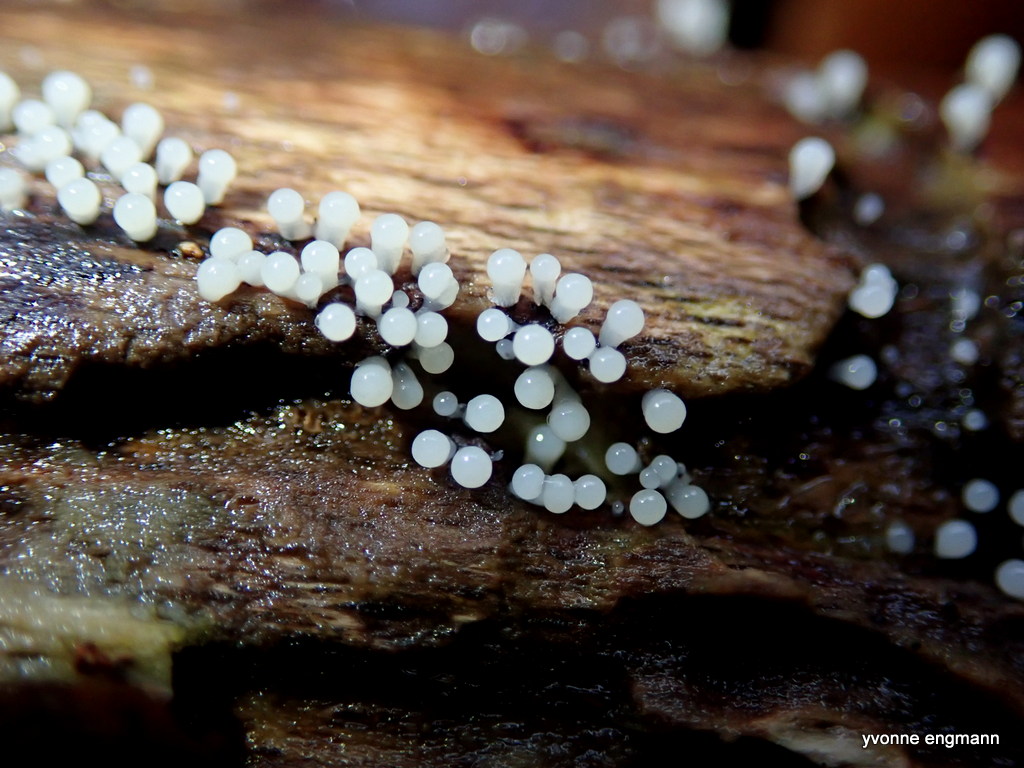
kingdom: Protozoa
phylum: Mycetozoa
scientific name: Mycetozoa
